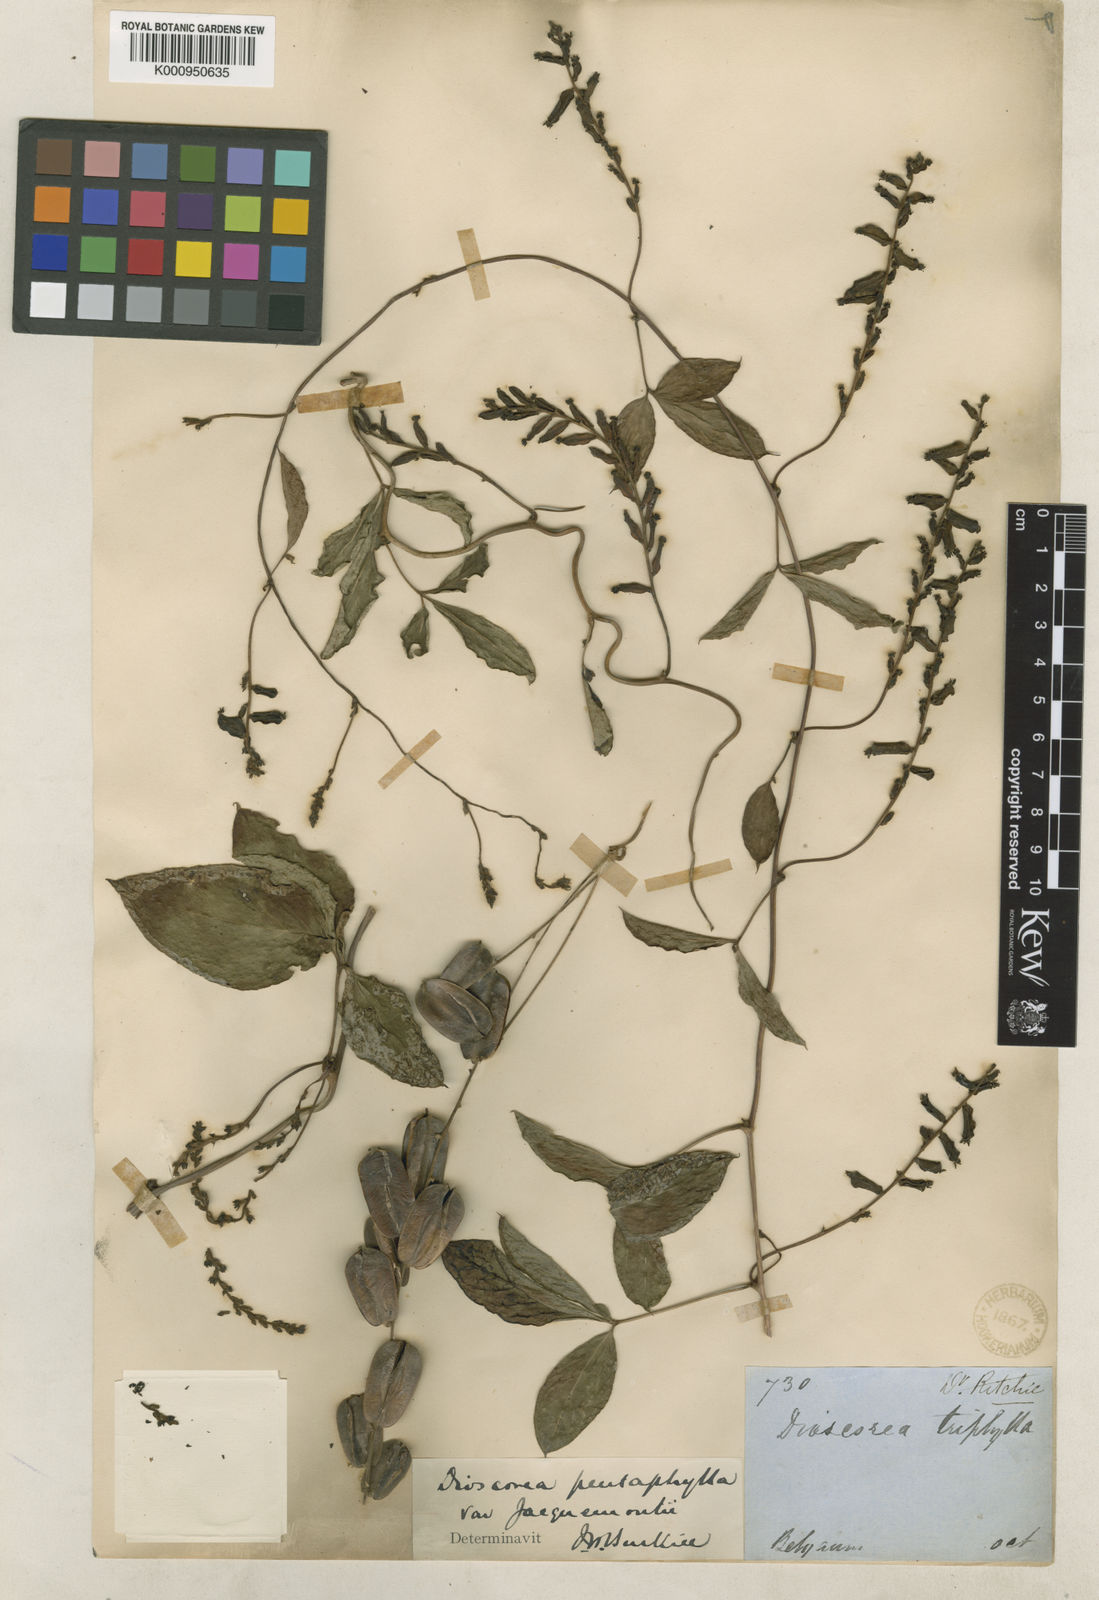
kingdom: Plantae
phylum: Tracheophyta
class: Liliopsida
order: Dioscoreales
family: Dioscoreaceae
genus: Dioscorea
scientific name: Dioscorea pentaphylla
